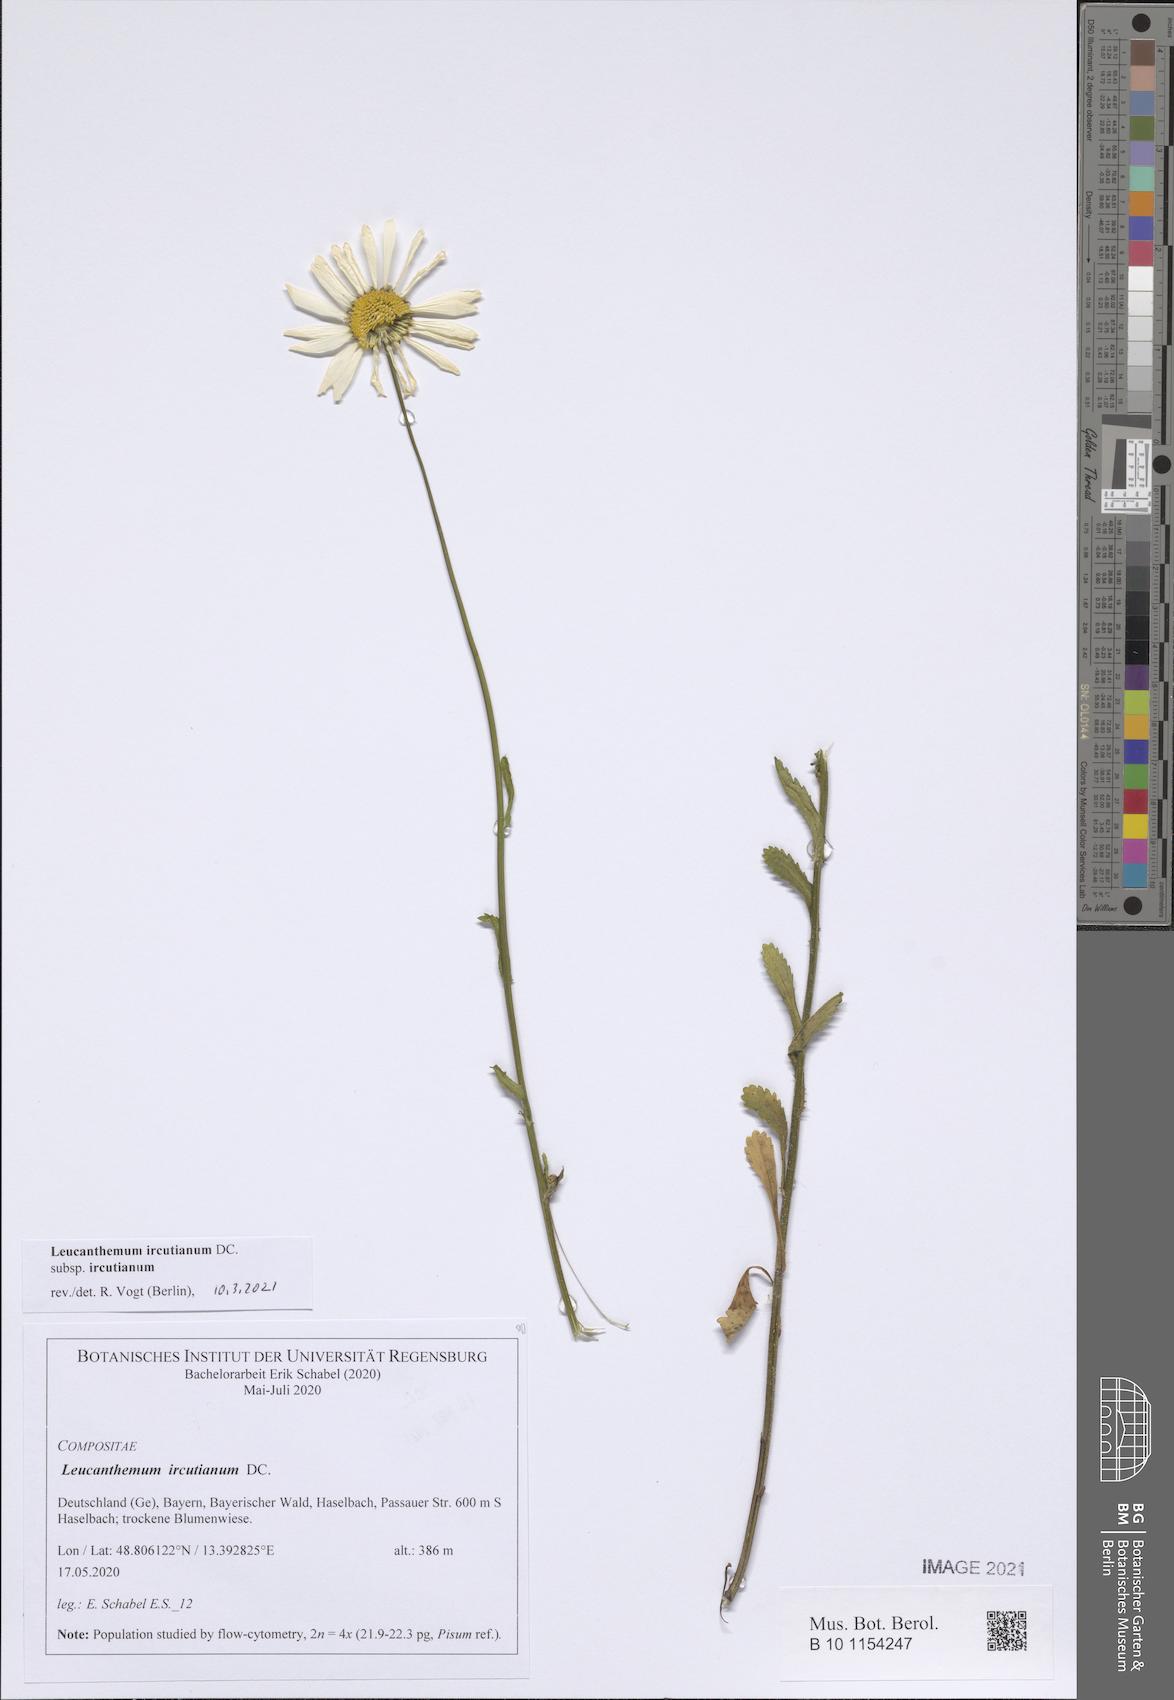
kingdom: Plantae
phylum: Tracheophyta
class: Magnoliopsida
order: Asterales
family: Asteraceae
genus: Leucanthemum
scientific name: Leucanthemum ircutianum
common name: Daisy
